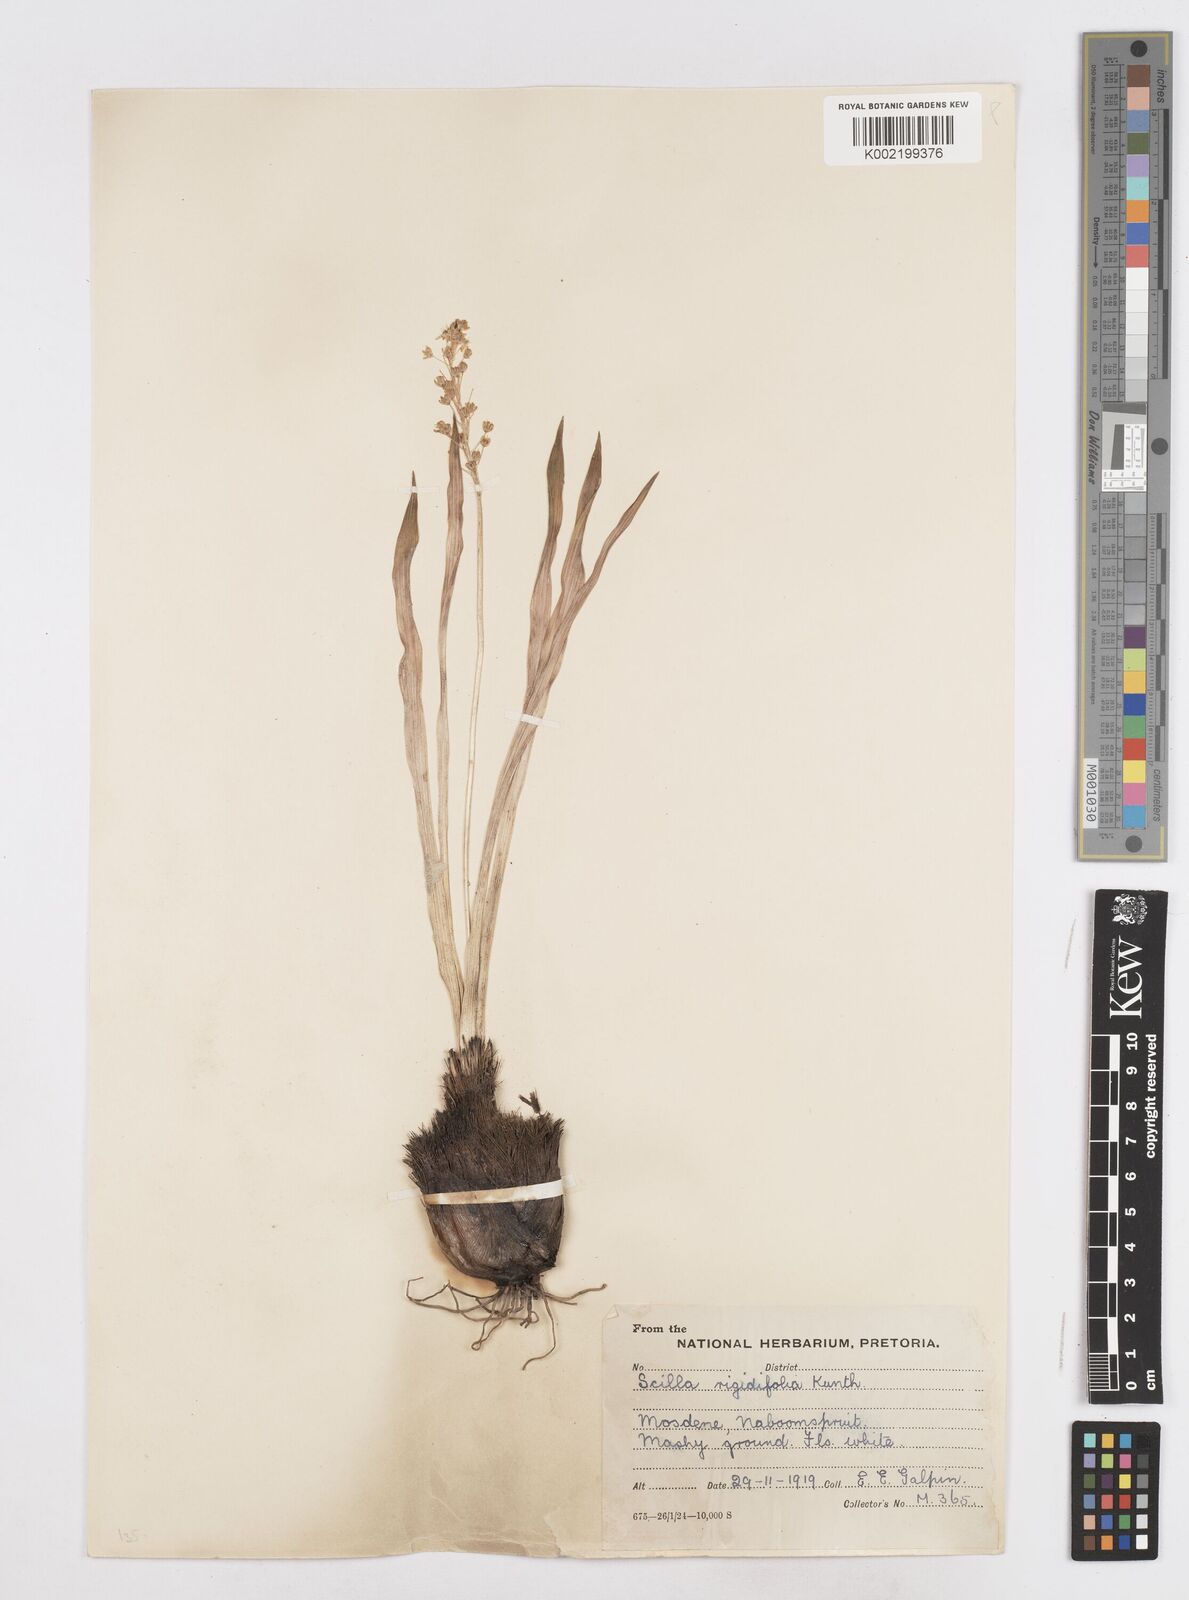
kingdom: Plantae
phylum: Tracheophyta
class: Liliopsida
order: Asparagales
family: Asparagaceae
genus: Schizocarphus
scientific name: Schizocarphus nervosus
